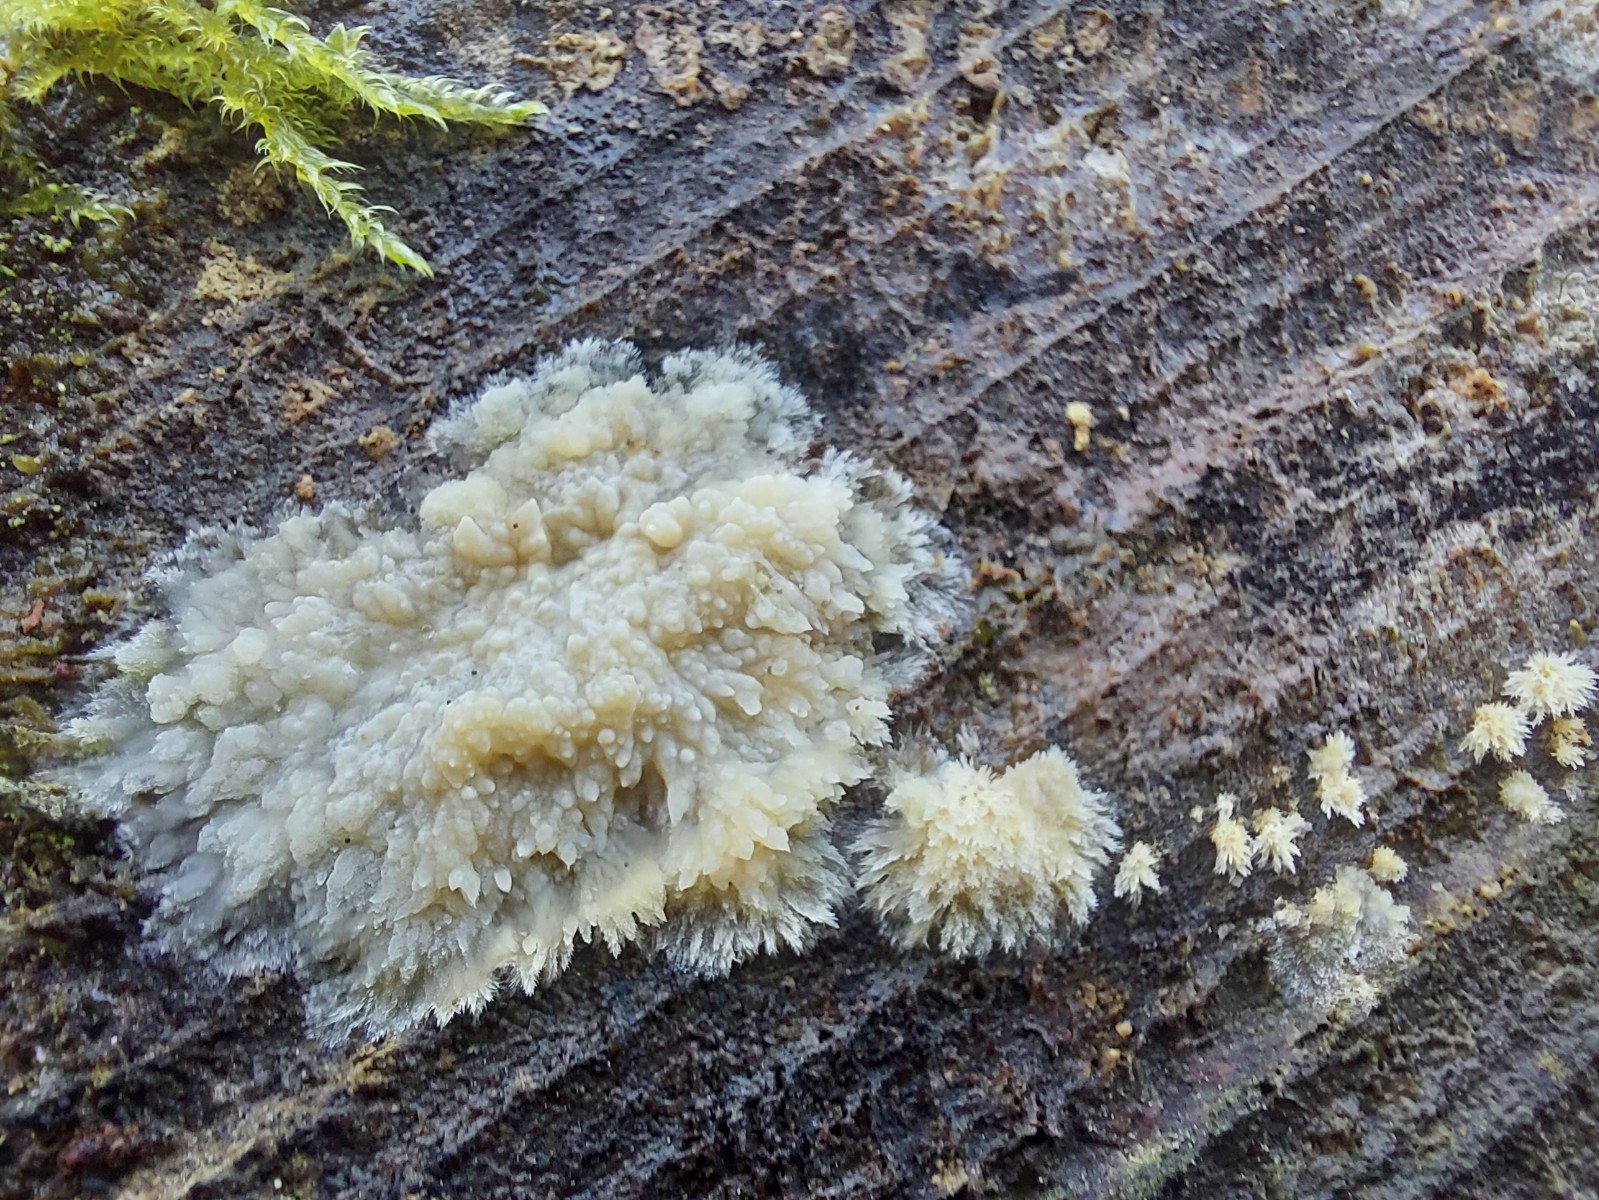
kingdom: Fungi
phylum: Basidiomycota
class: Agaricomycetes
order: Corticiales
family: Corticiaceae
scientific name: Corticiaceae
